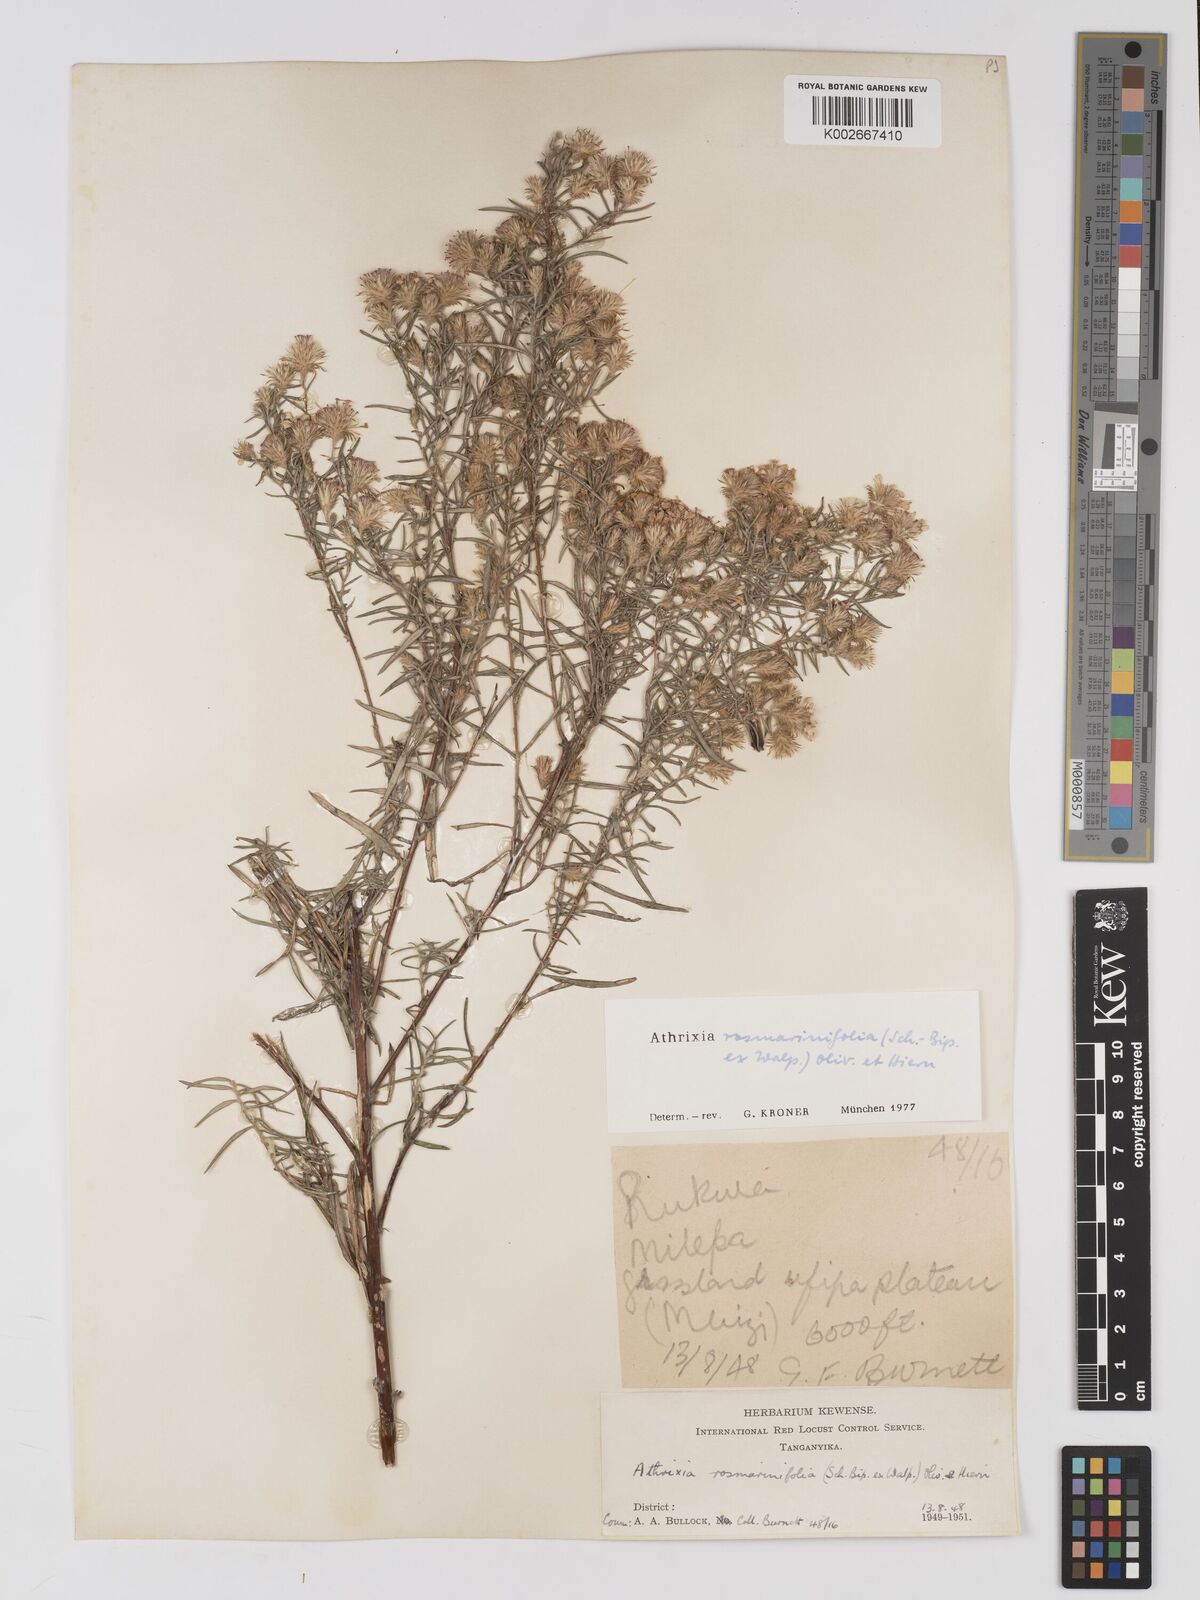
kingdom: Plantae
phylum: Tracheophyta
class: Magnoliopsida
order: Asterales
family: Asteraceae
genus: Athrixia
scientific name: Athrixia rosmarinifolia
